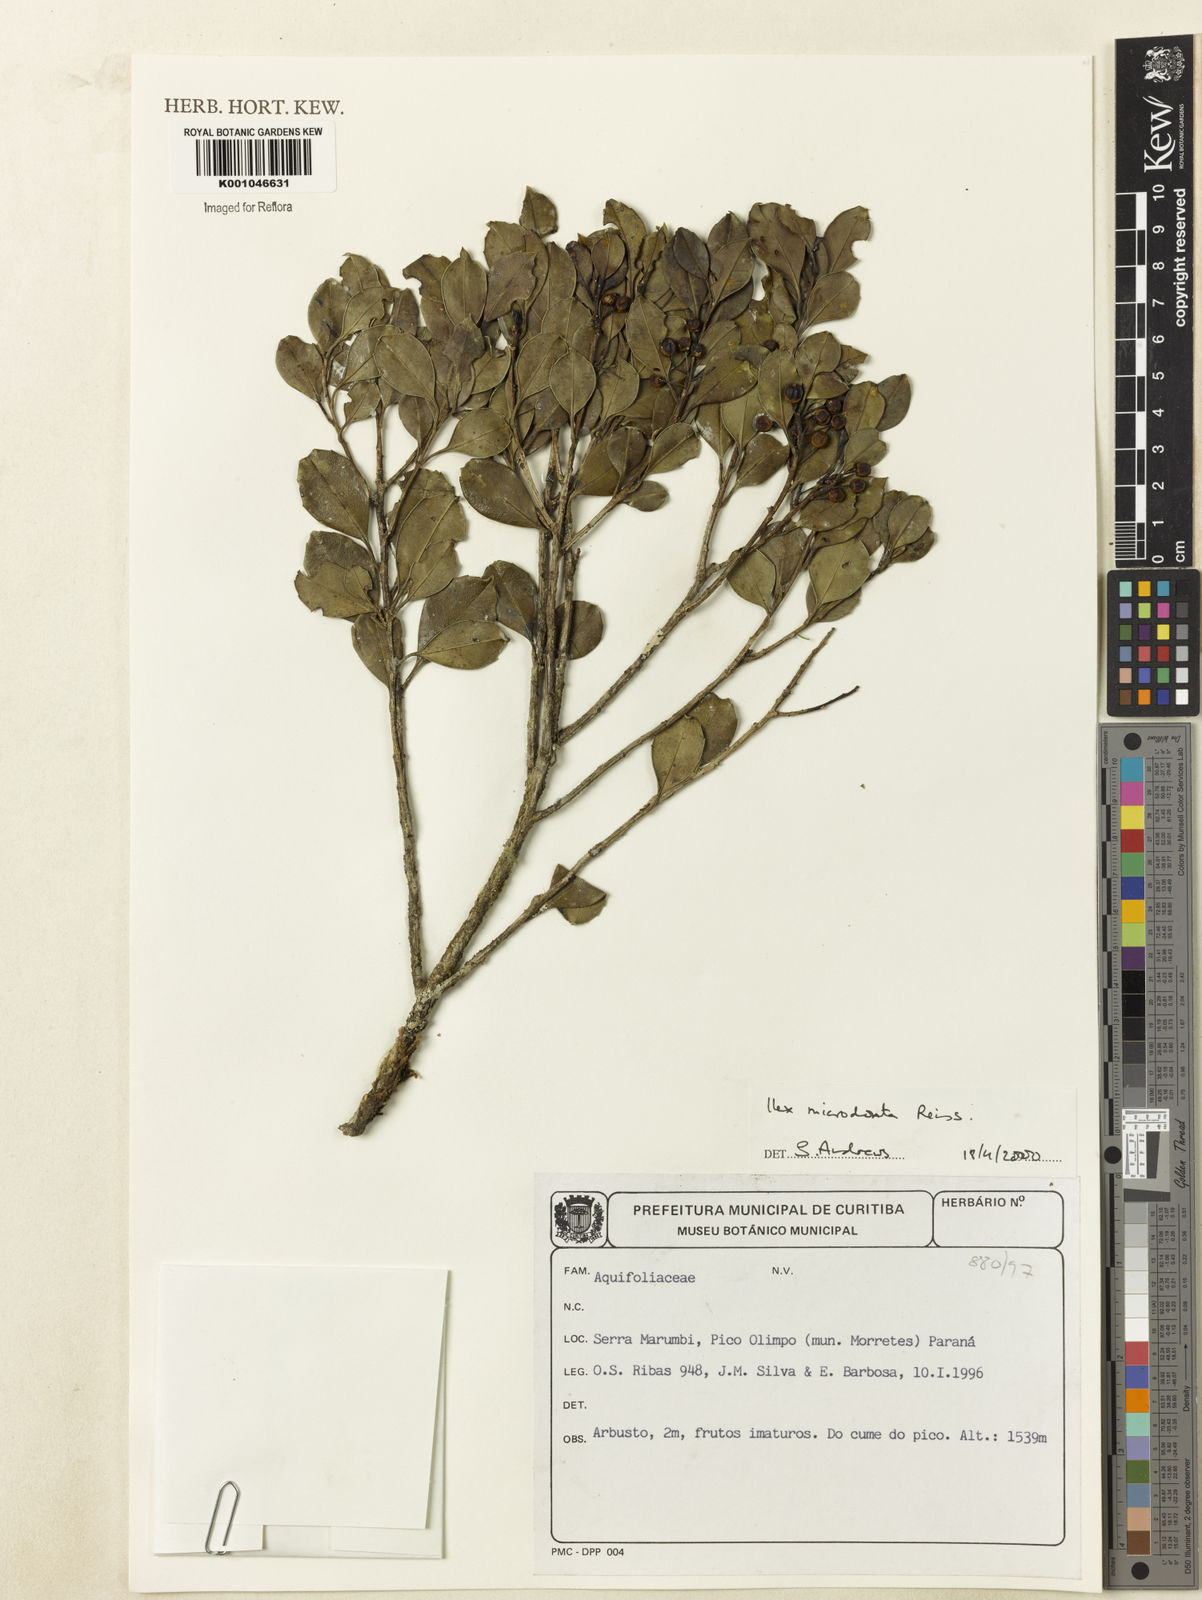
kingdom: Plantae
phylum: Tracheophyta
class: Magnoliopsida
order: Aquifoliales
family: Aquifoliaceae
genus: Ilex
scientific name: Ilex microdonta
